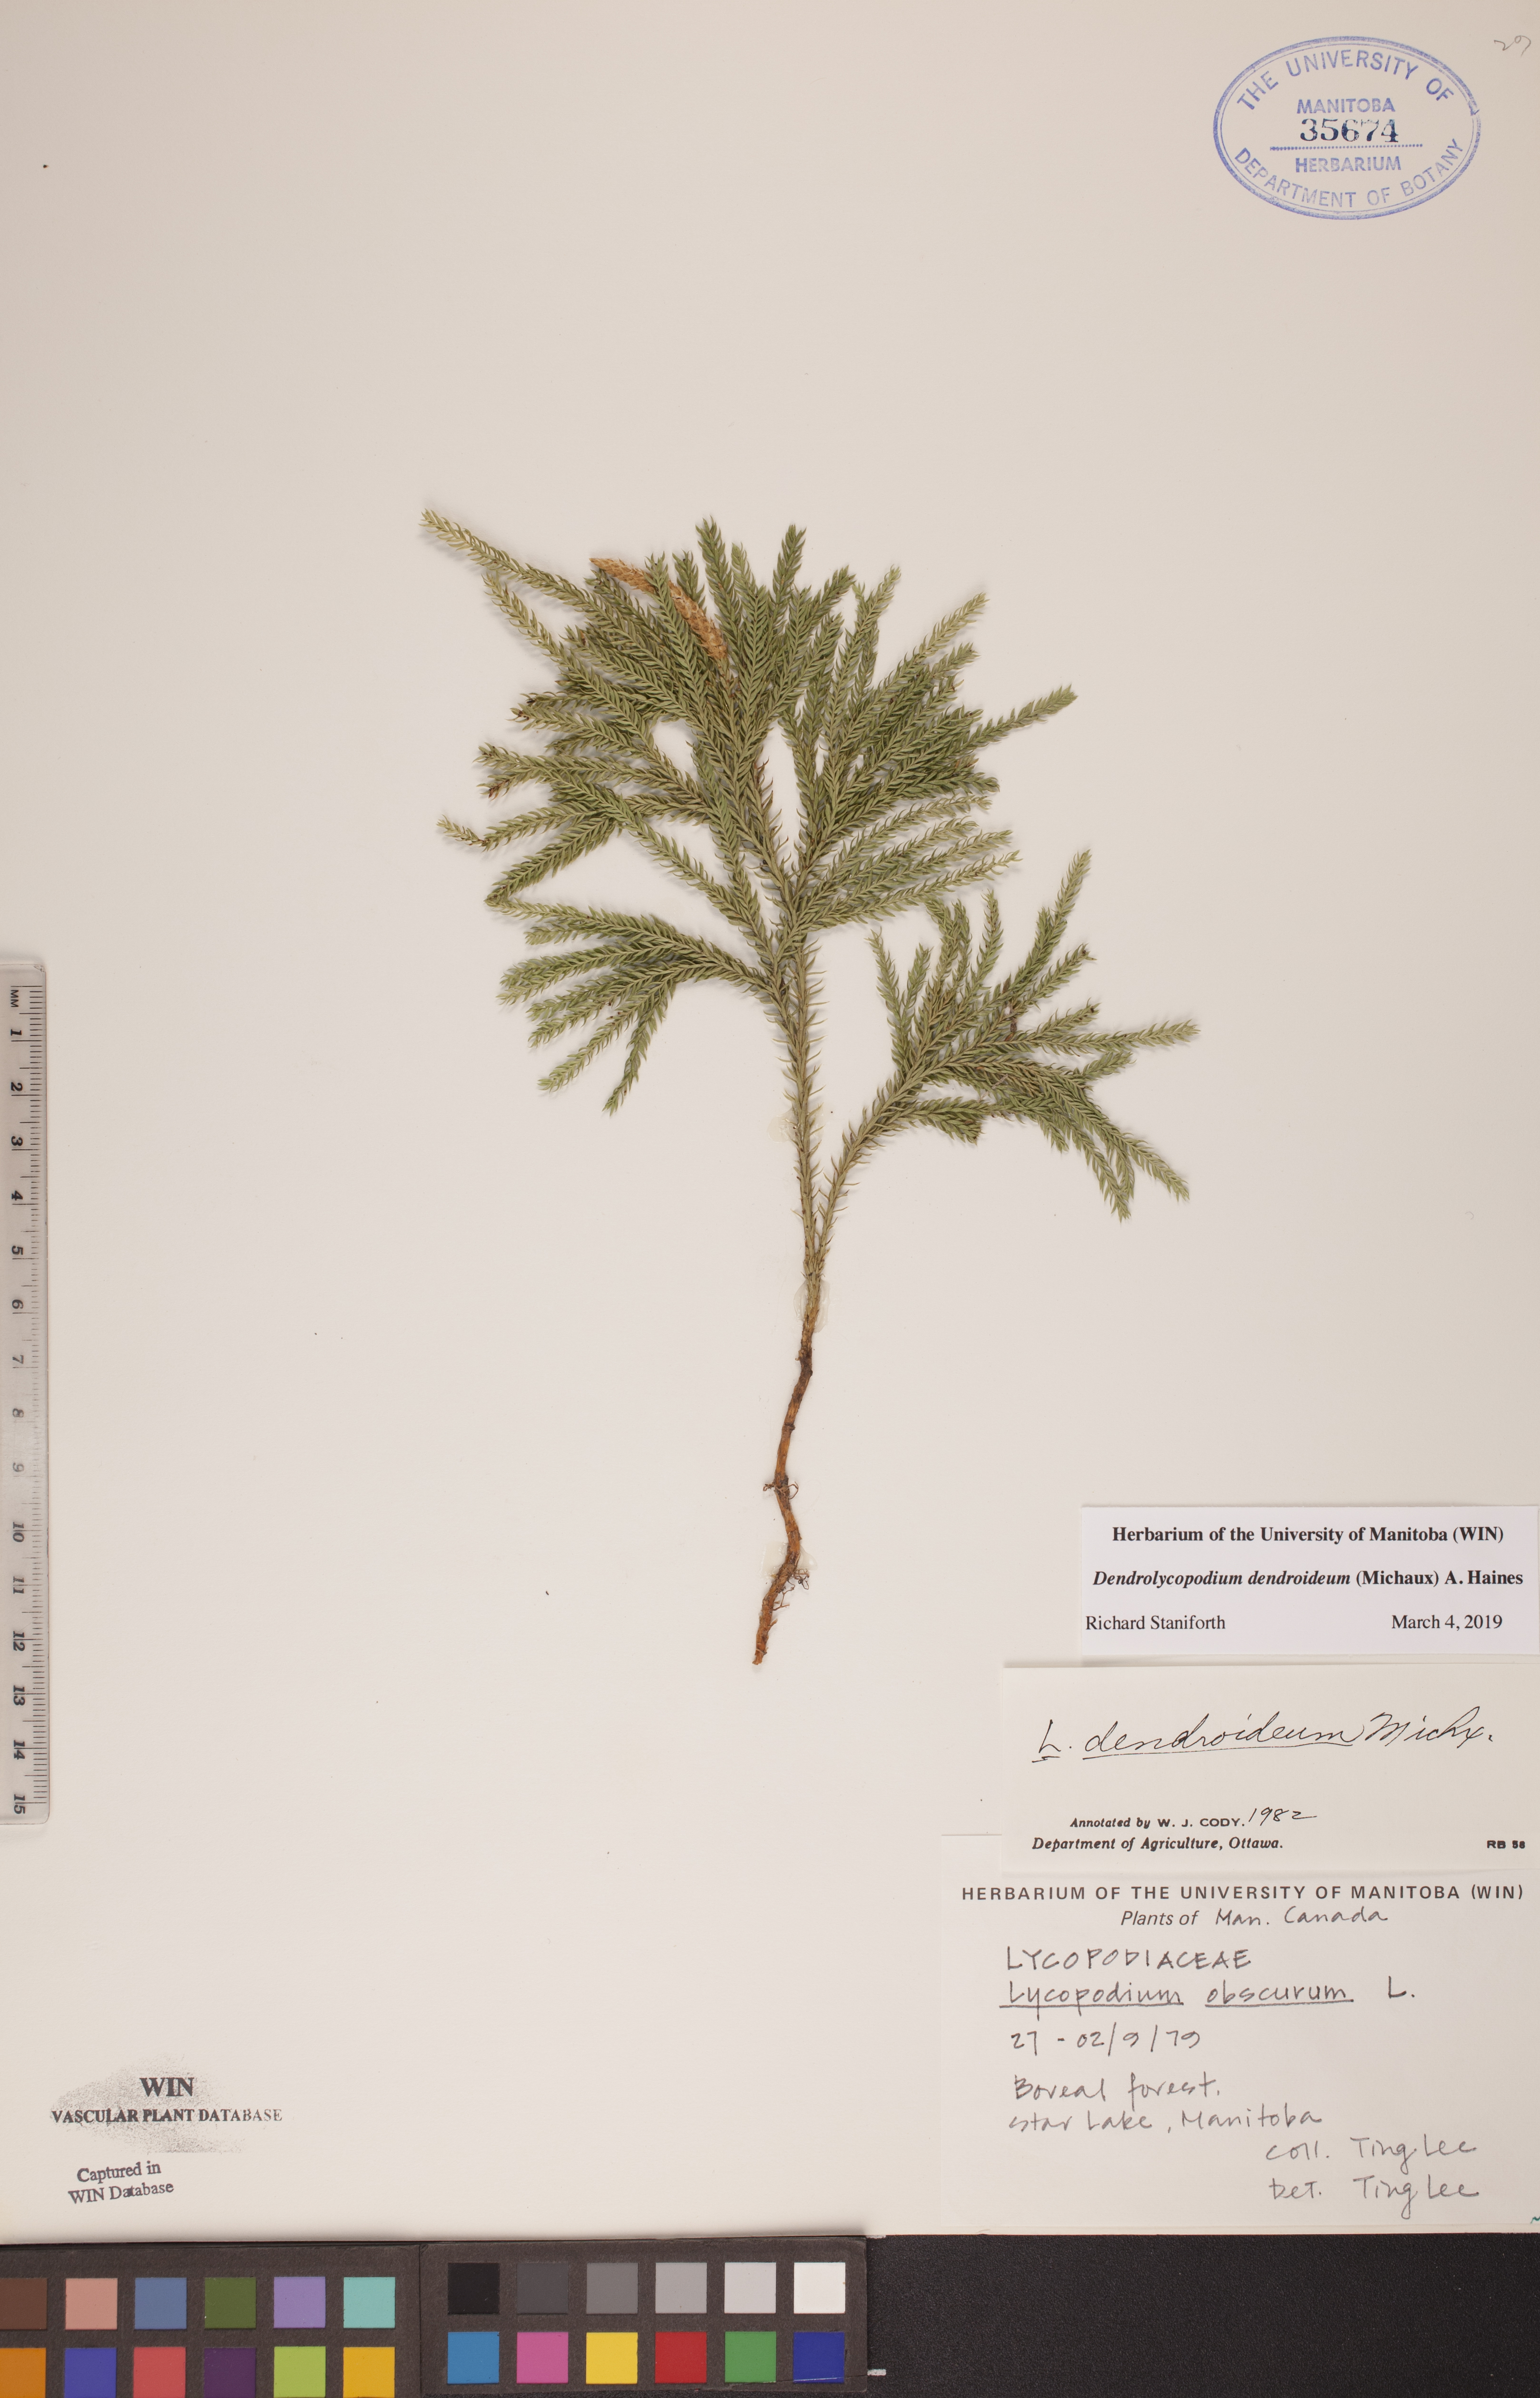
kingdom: Plantae
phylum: Tracheophyta
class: Lycopodiopsida
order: Lycopodiales
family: Lycopodiaceae
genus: Dendrolycopodium
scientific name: Dendrolycopodium dendroideum
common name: Northern tree-clubmoss
